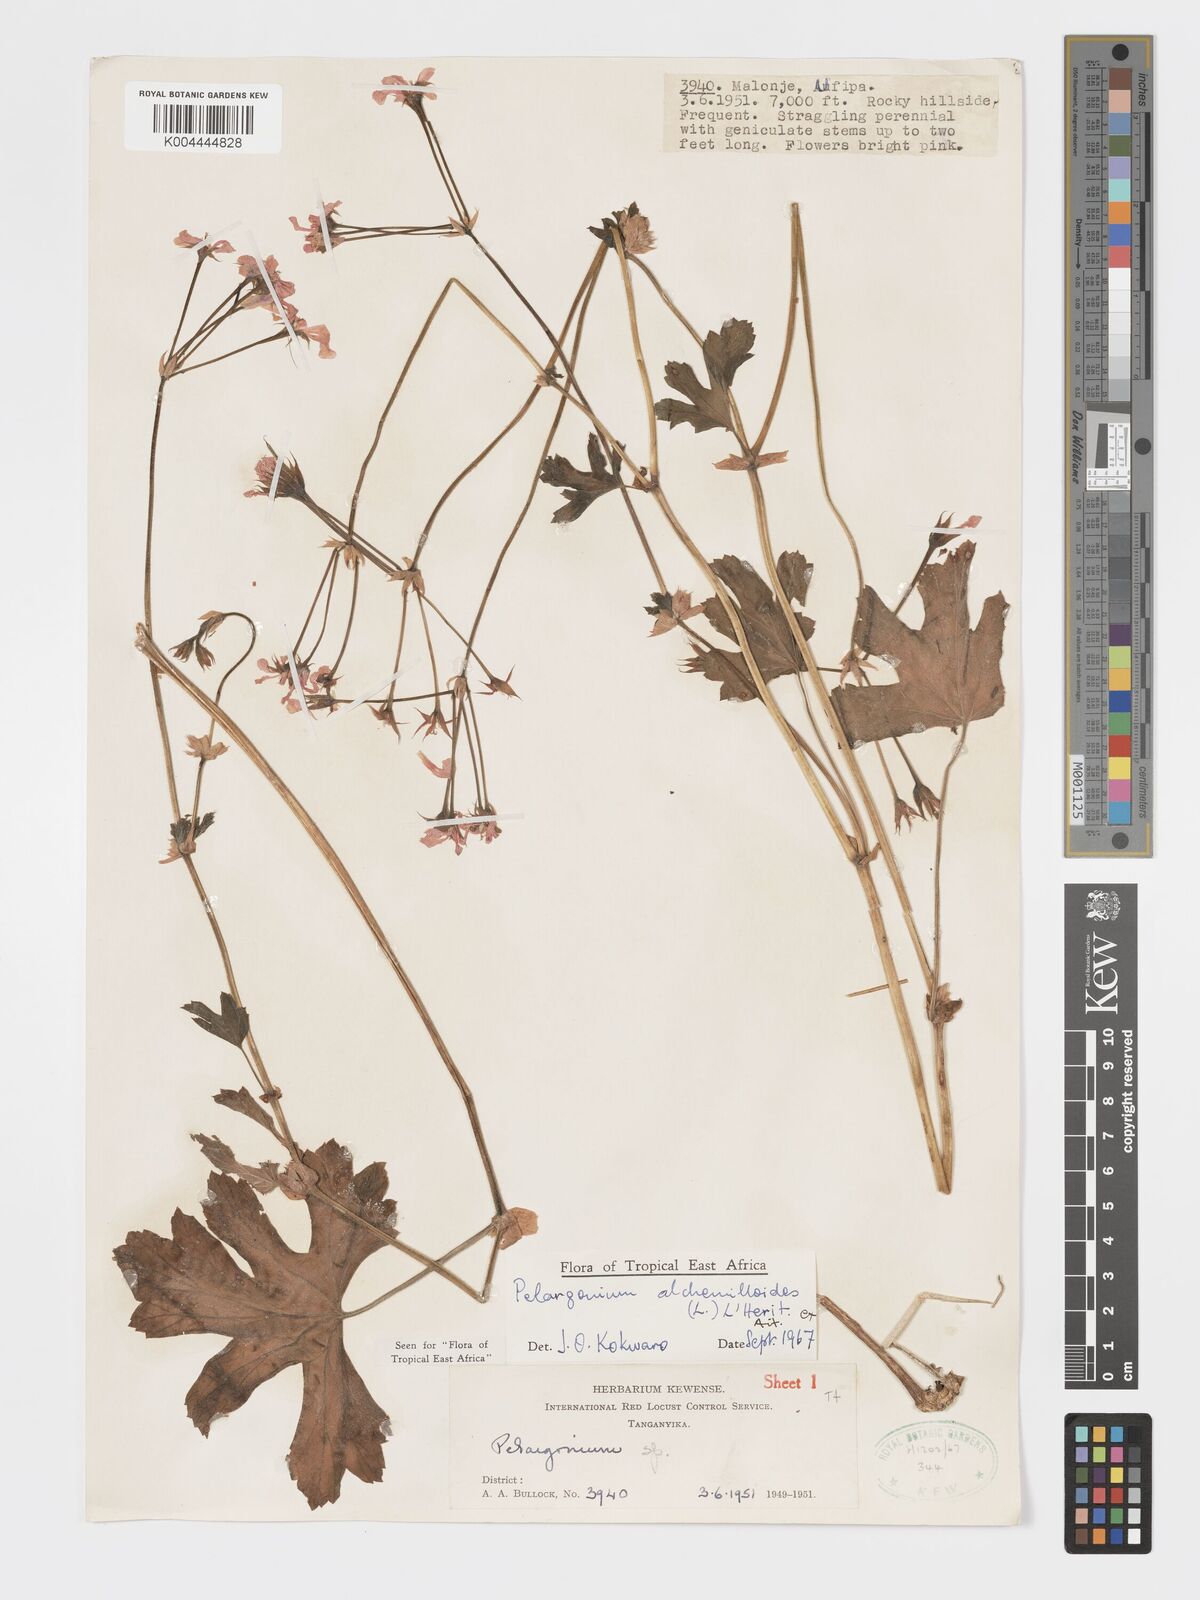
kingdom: Plantae
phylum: Tracheophyta
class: Magnoliopsida
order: Geraniales
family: Geraniaceae
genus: Pelargonium
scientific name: Pelargonium multibracteatum
